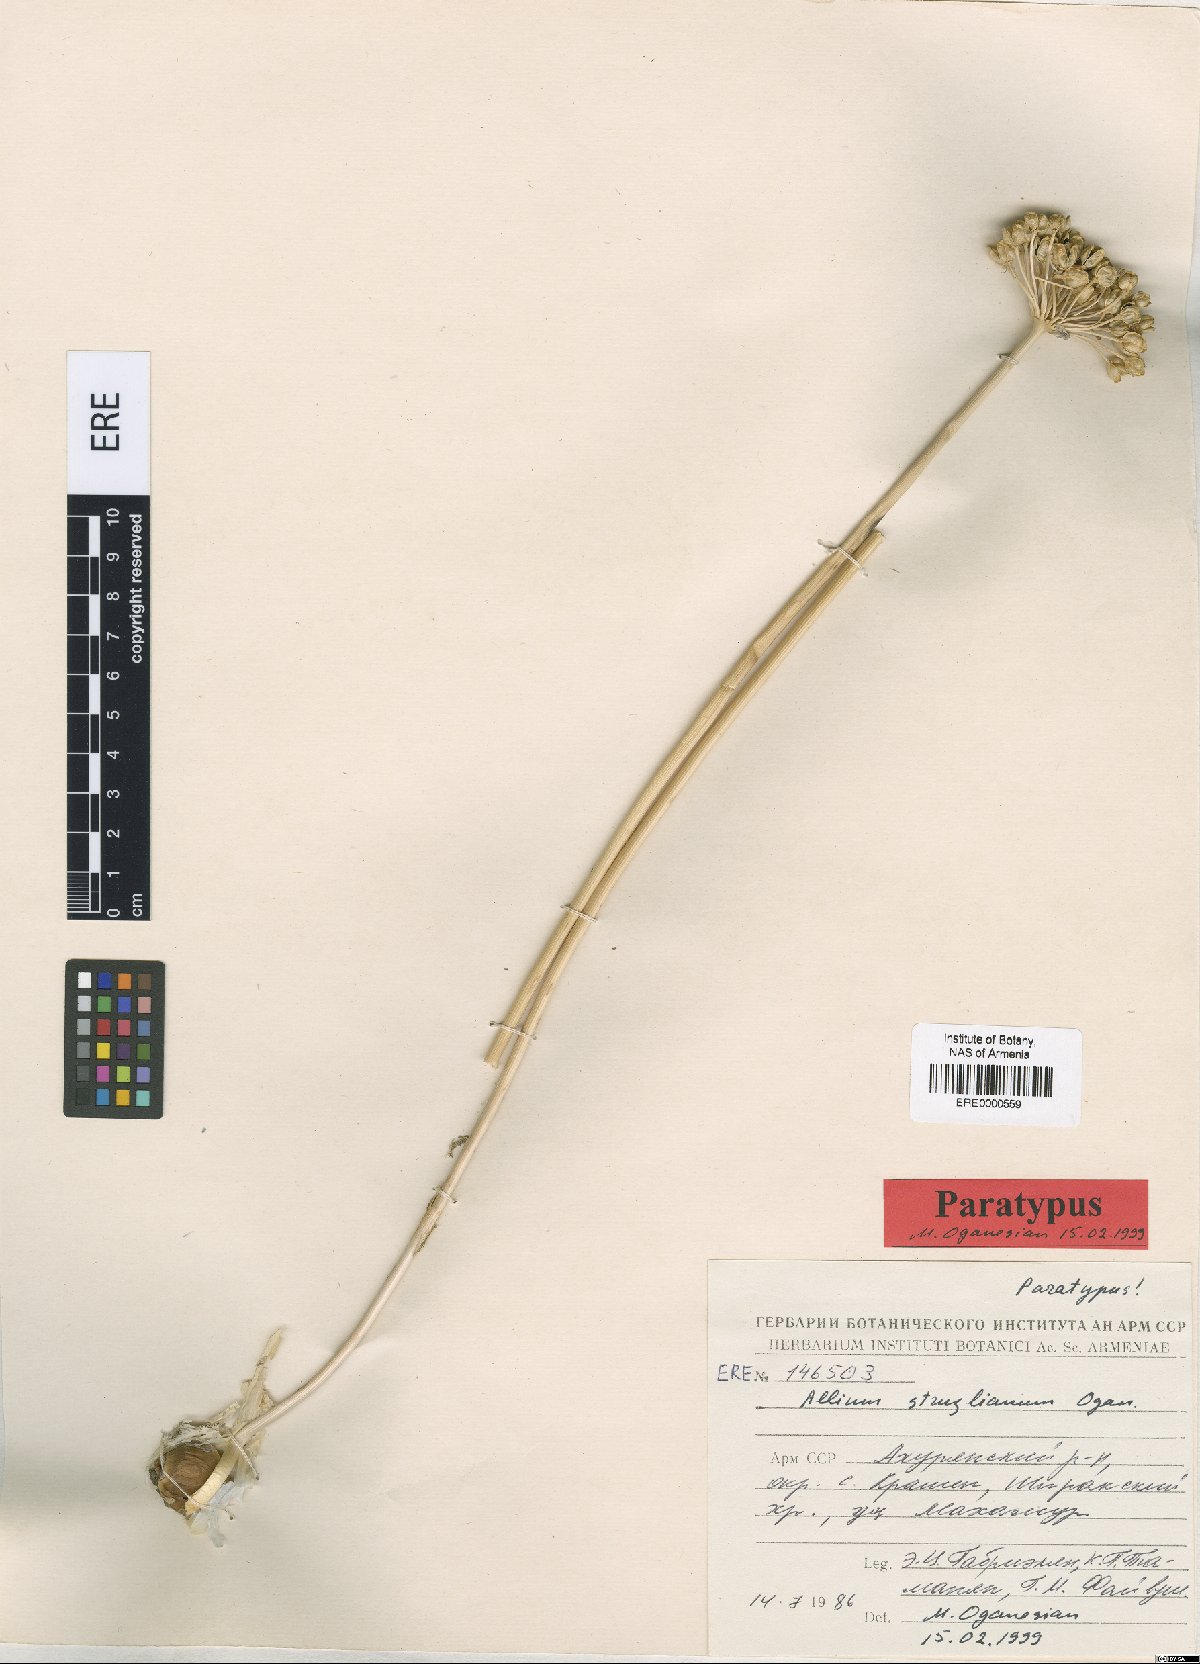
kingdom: Plantae
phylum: Tracheophyta
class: Liliopsida
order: Asparagales
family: Amaryllidaceae
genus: Allium
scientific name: Allium struzlianum
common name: Struzl's onion
